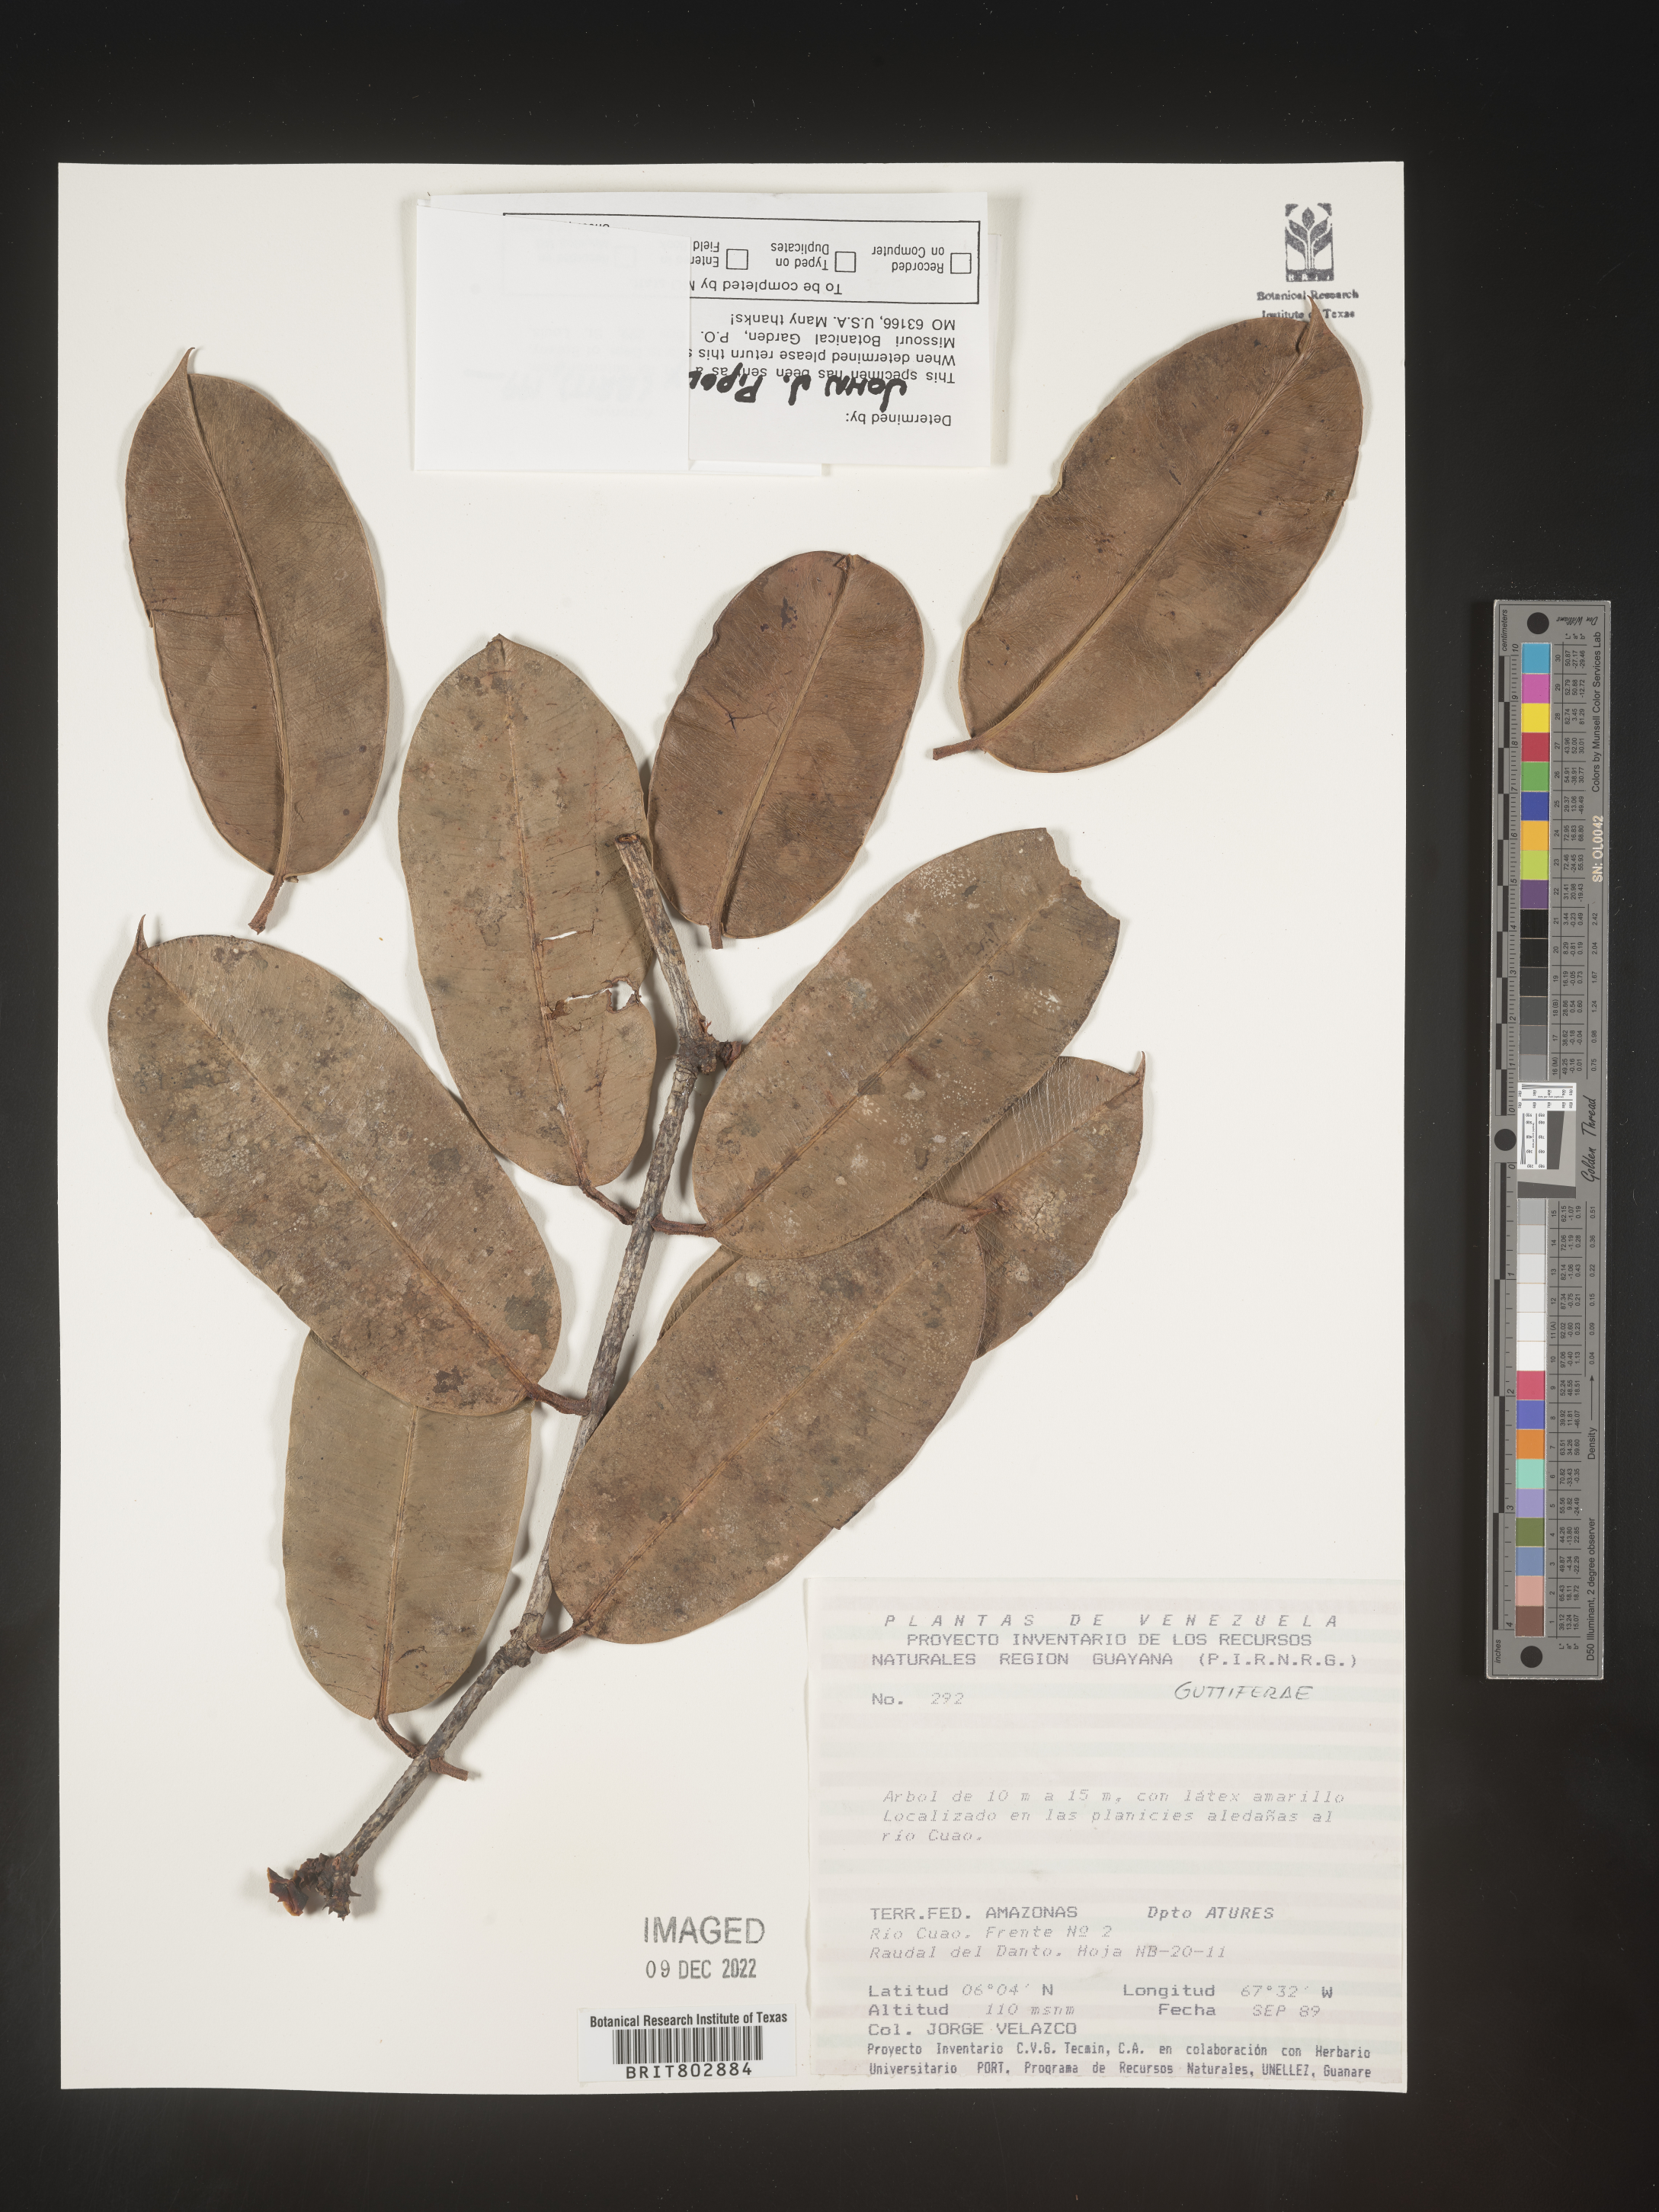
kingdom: Plantae
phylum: Tracheophyta
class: Magnoliopsida
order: Malpighiales
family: Clusiaceae
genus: Lorostemon
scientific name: Lorostemon
